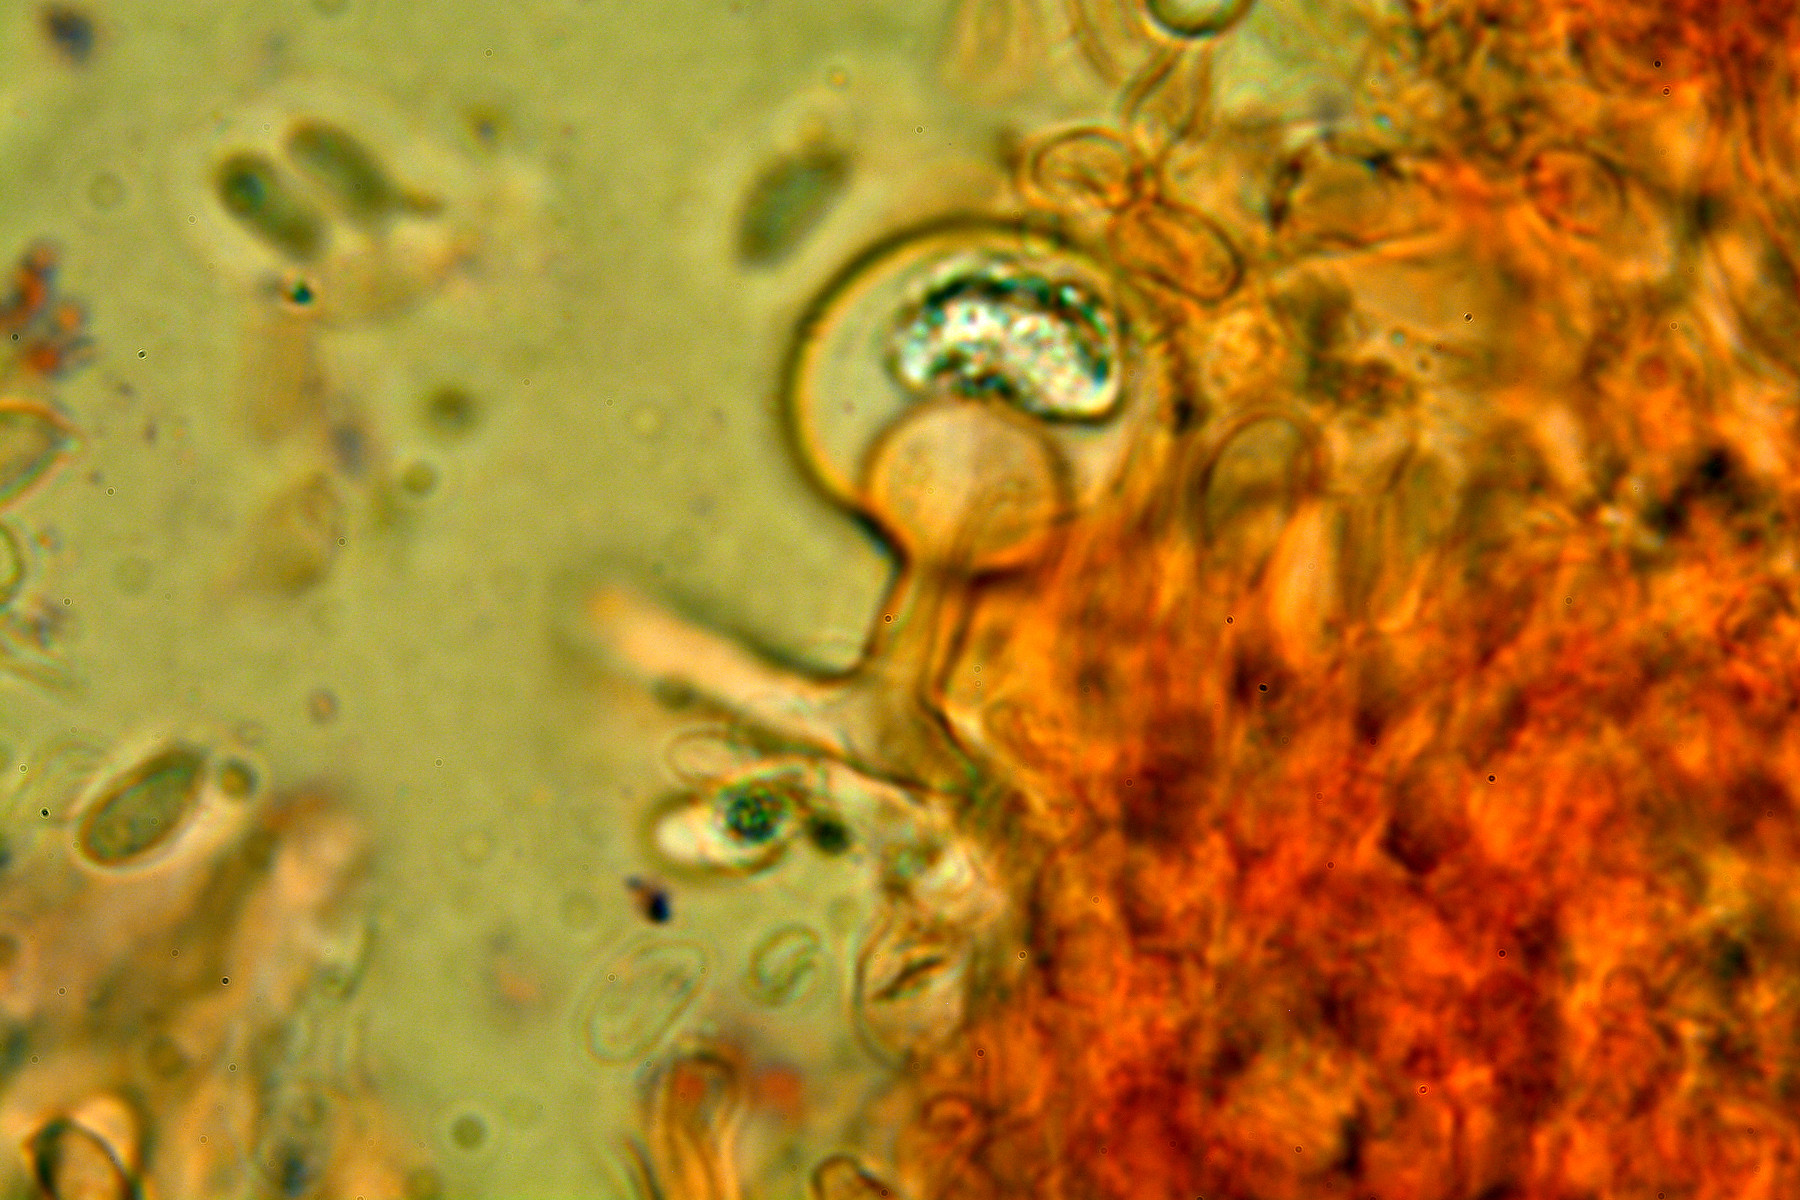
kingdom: Fungi
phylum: Basidiomycota
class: Agaricomycetes
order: Hymenochaetales
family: Rickenellaceae
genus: Resinicium
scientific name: Resinicium bicolor
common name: almindelig vokstand
